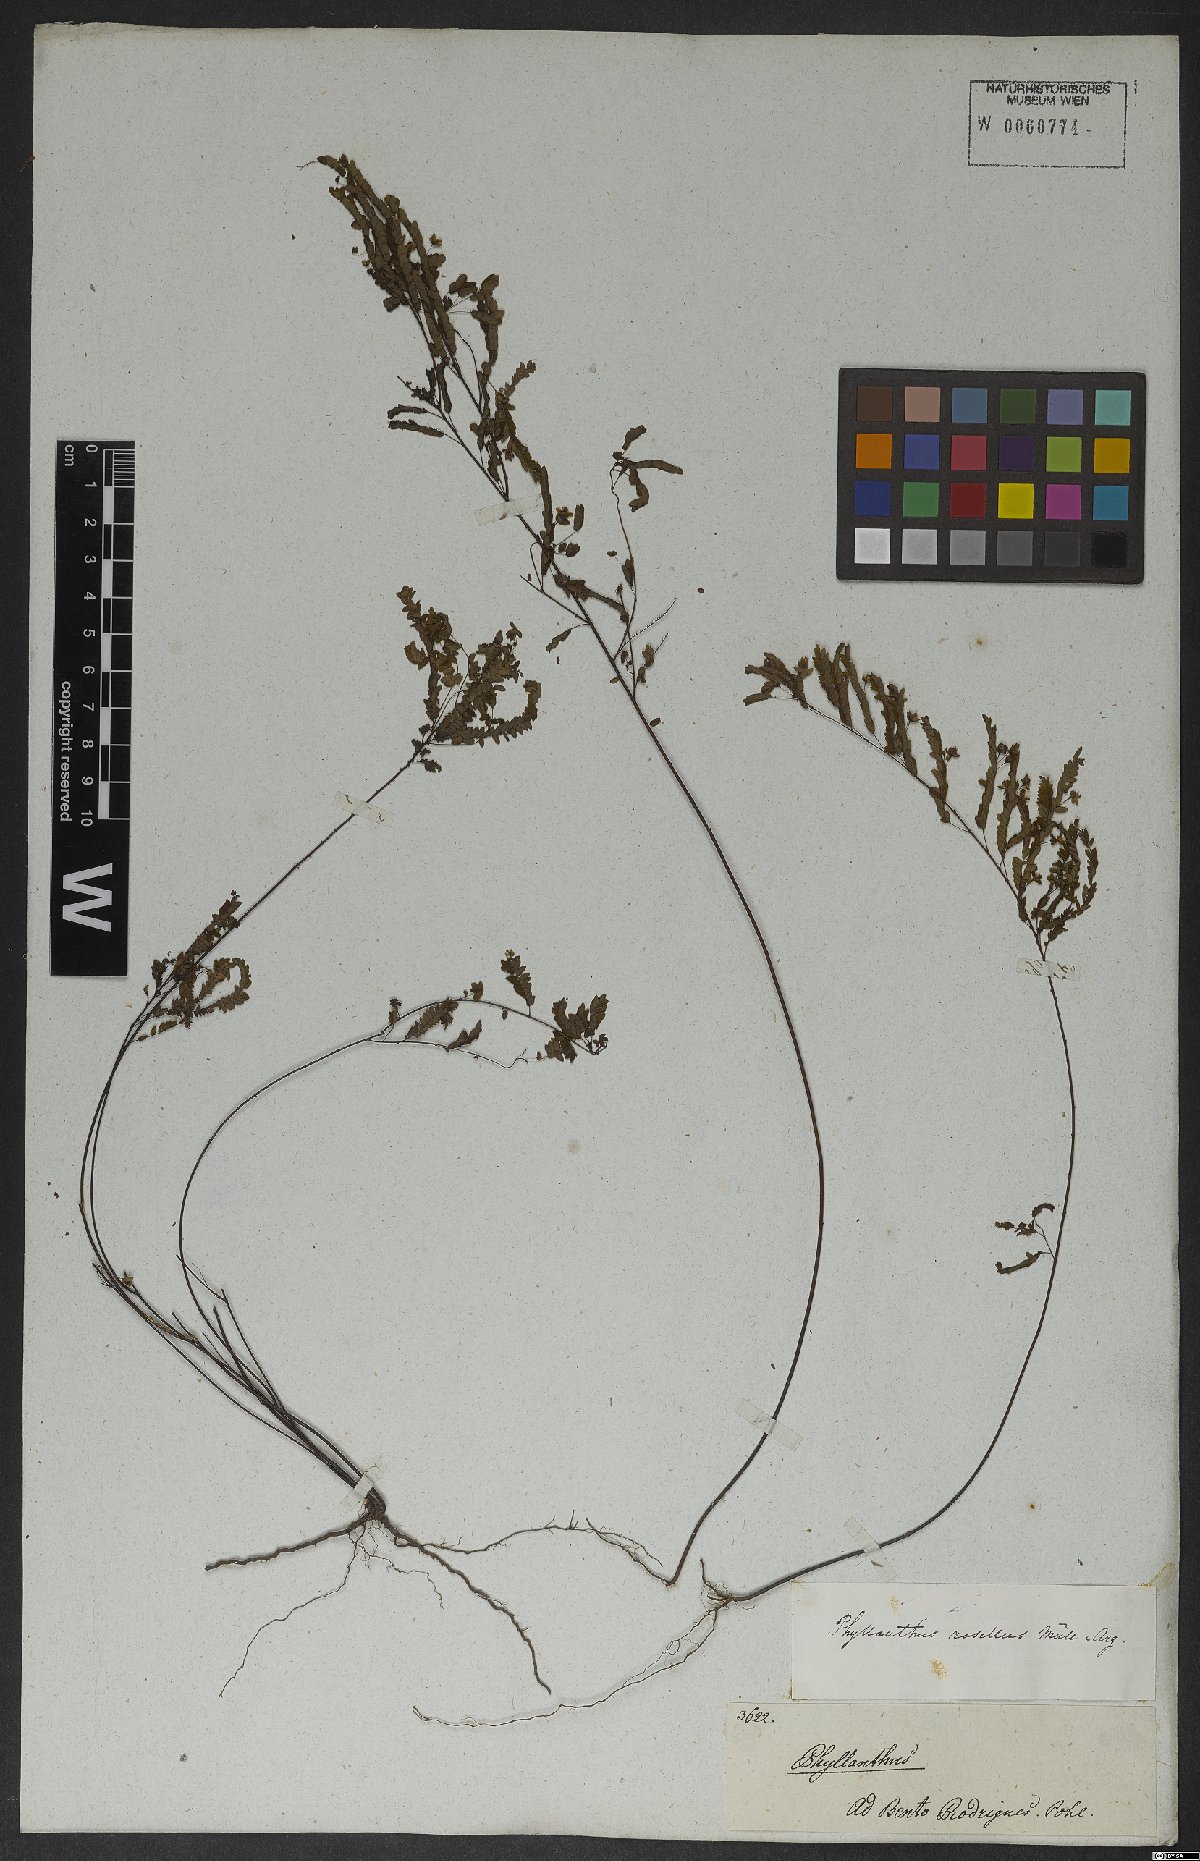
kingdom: Plantae
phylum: Tracheophyta
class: Magnoliopsida
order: Malpighiales
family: Phyllanthaceae
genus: Phyllanthus
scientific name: Phyllanthus niruri
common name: Niruri
